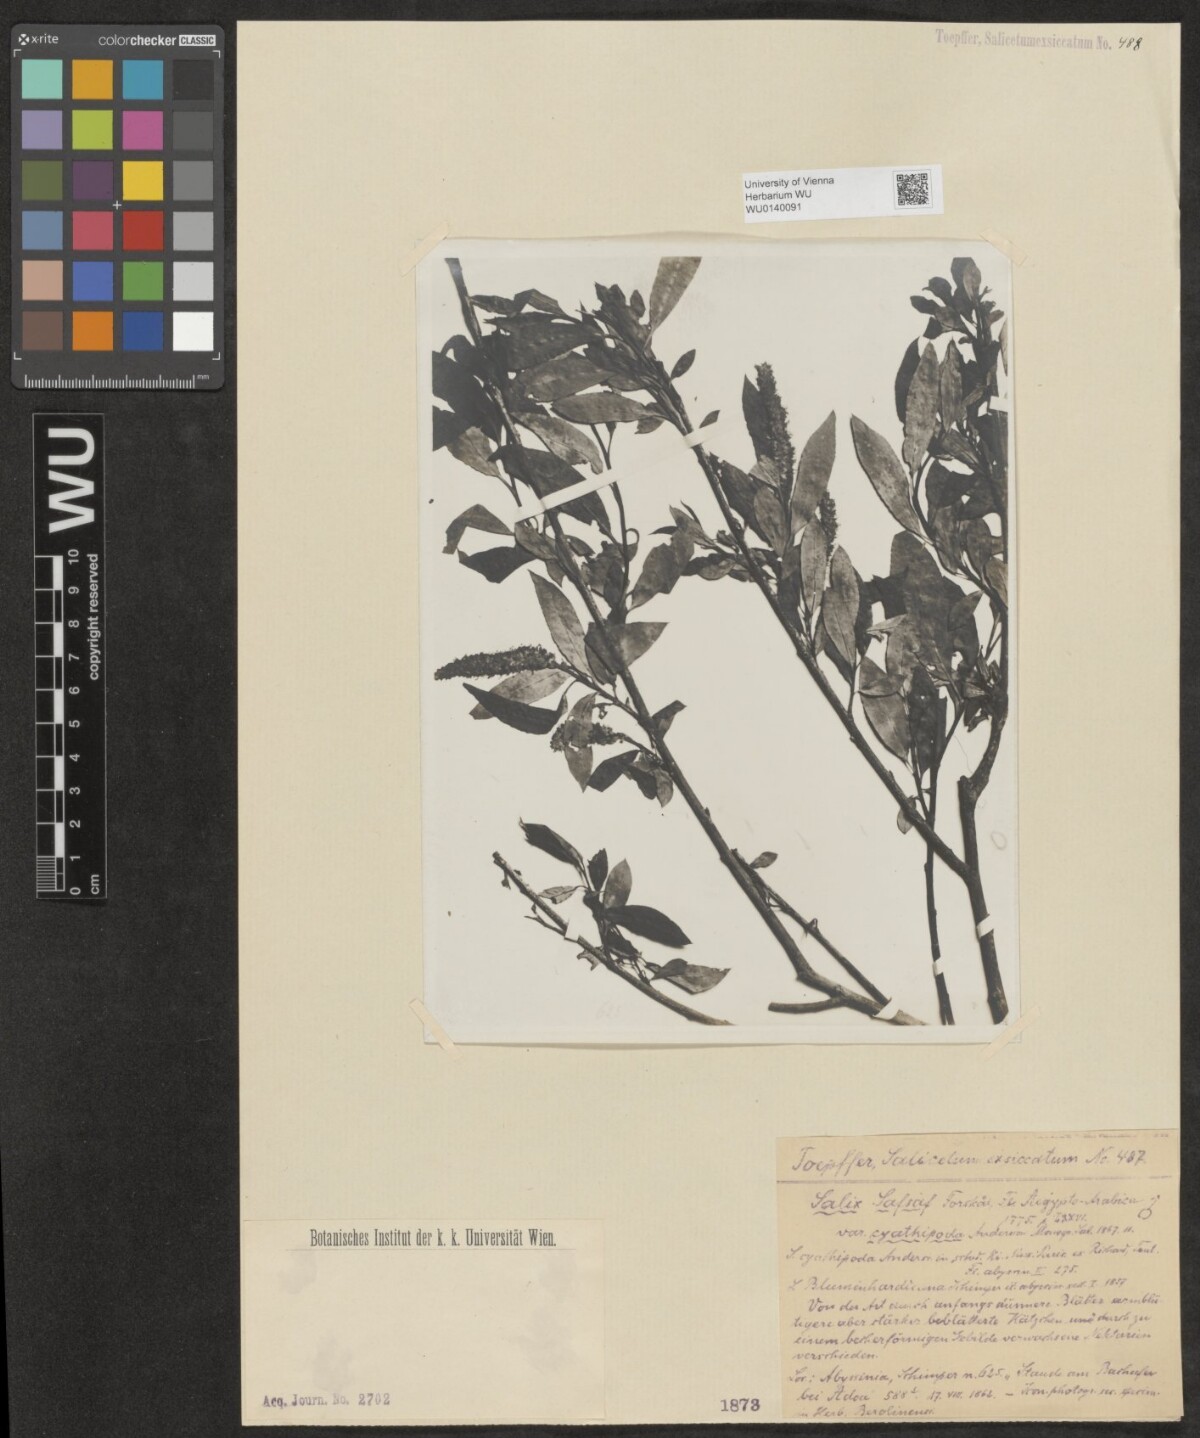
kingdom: Plantae
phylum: Tracheophyta
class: Magnoliopsida
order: Malpighiales
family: Salicaceae
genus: Salix
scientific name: Salix mucronata
